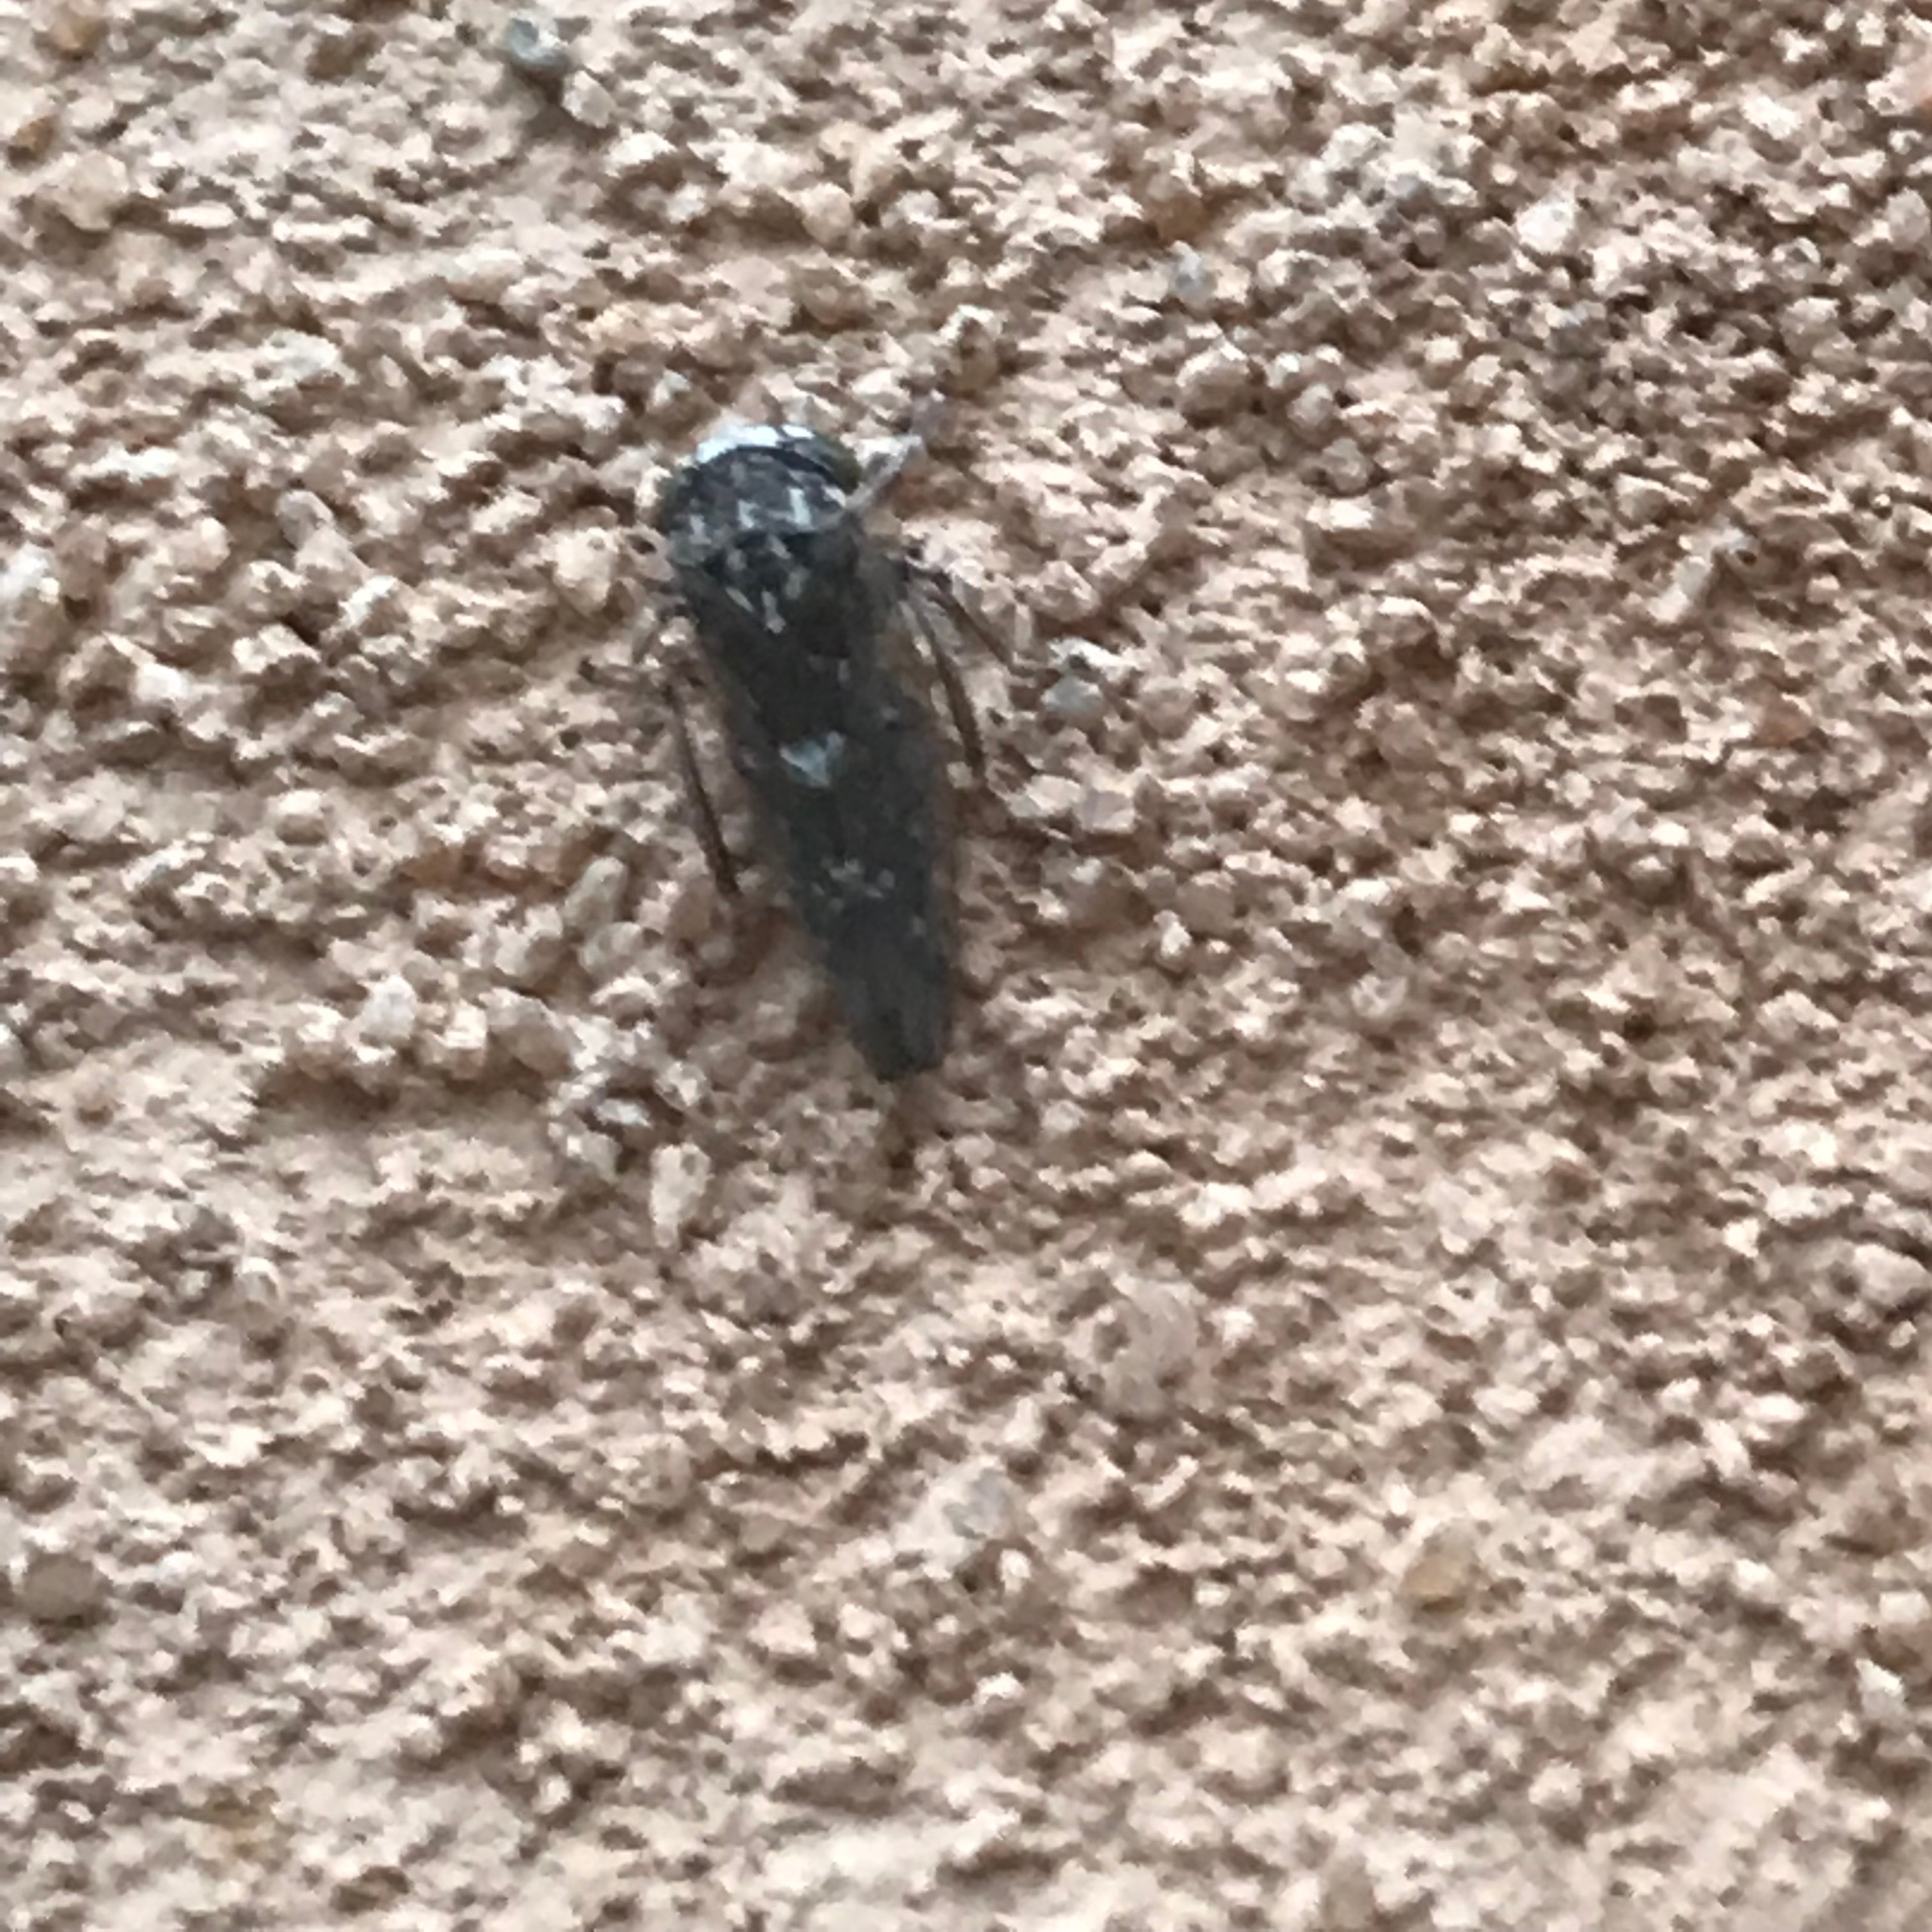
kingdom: Animalia
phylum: Arthropoda
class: Insecta
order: Hemiptera
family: Cicadellidae
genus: Acericerus
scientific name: Acericerus heydenii
